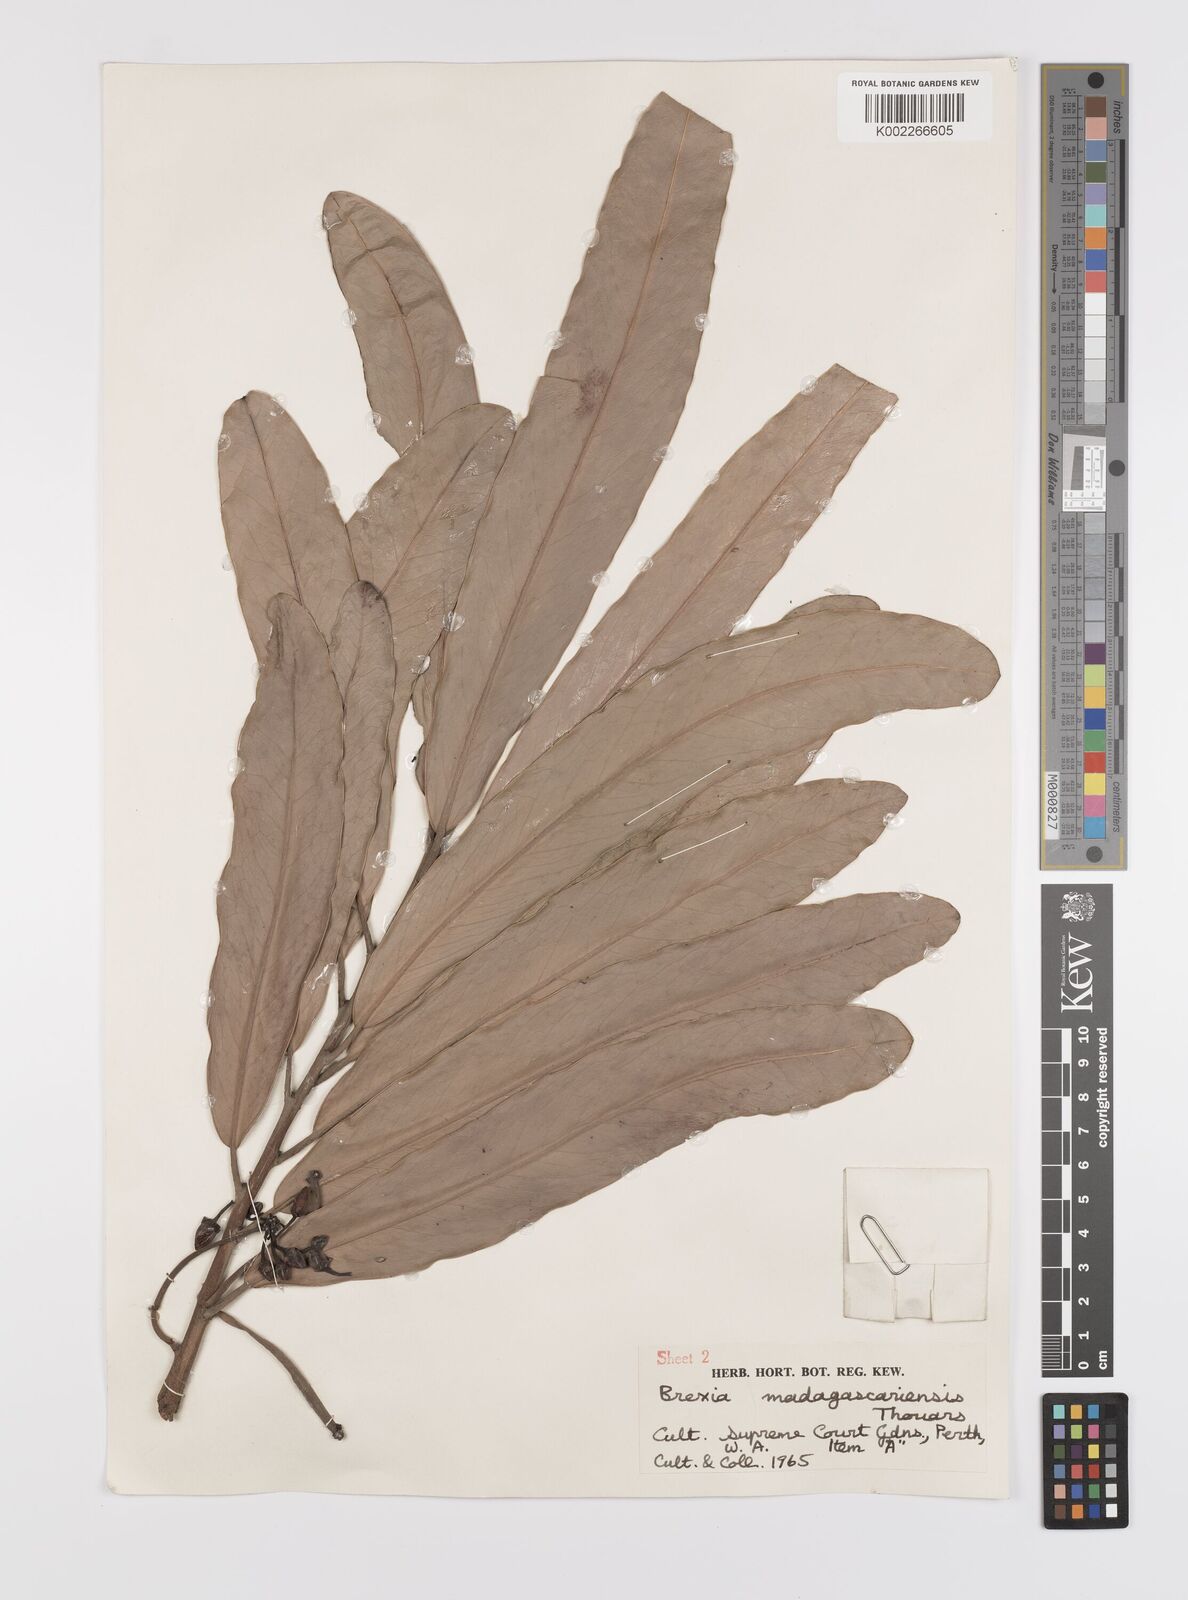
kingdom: Plantae
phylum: Tracheophyta
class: Magnoliopsida
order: Celastrales
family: Celastraceae
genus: Brexia
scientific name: Brexia madagascariensis
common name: Brexia
